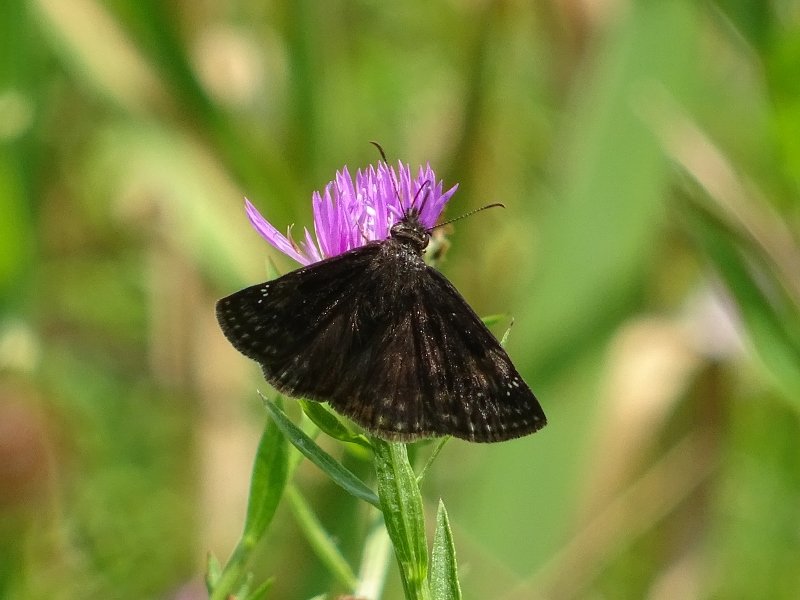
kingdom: Animalia
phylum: Arthropoda
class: Insecta
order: Lepidoptera
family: Hesperiidae
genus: Gesta
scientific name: Gesta
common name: Wild Indigo Duskywing
